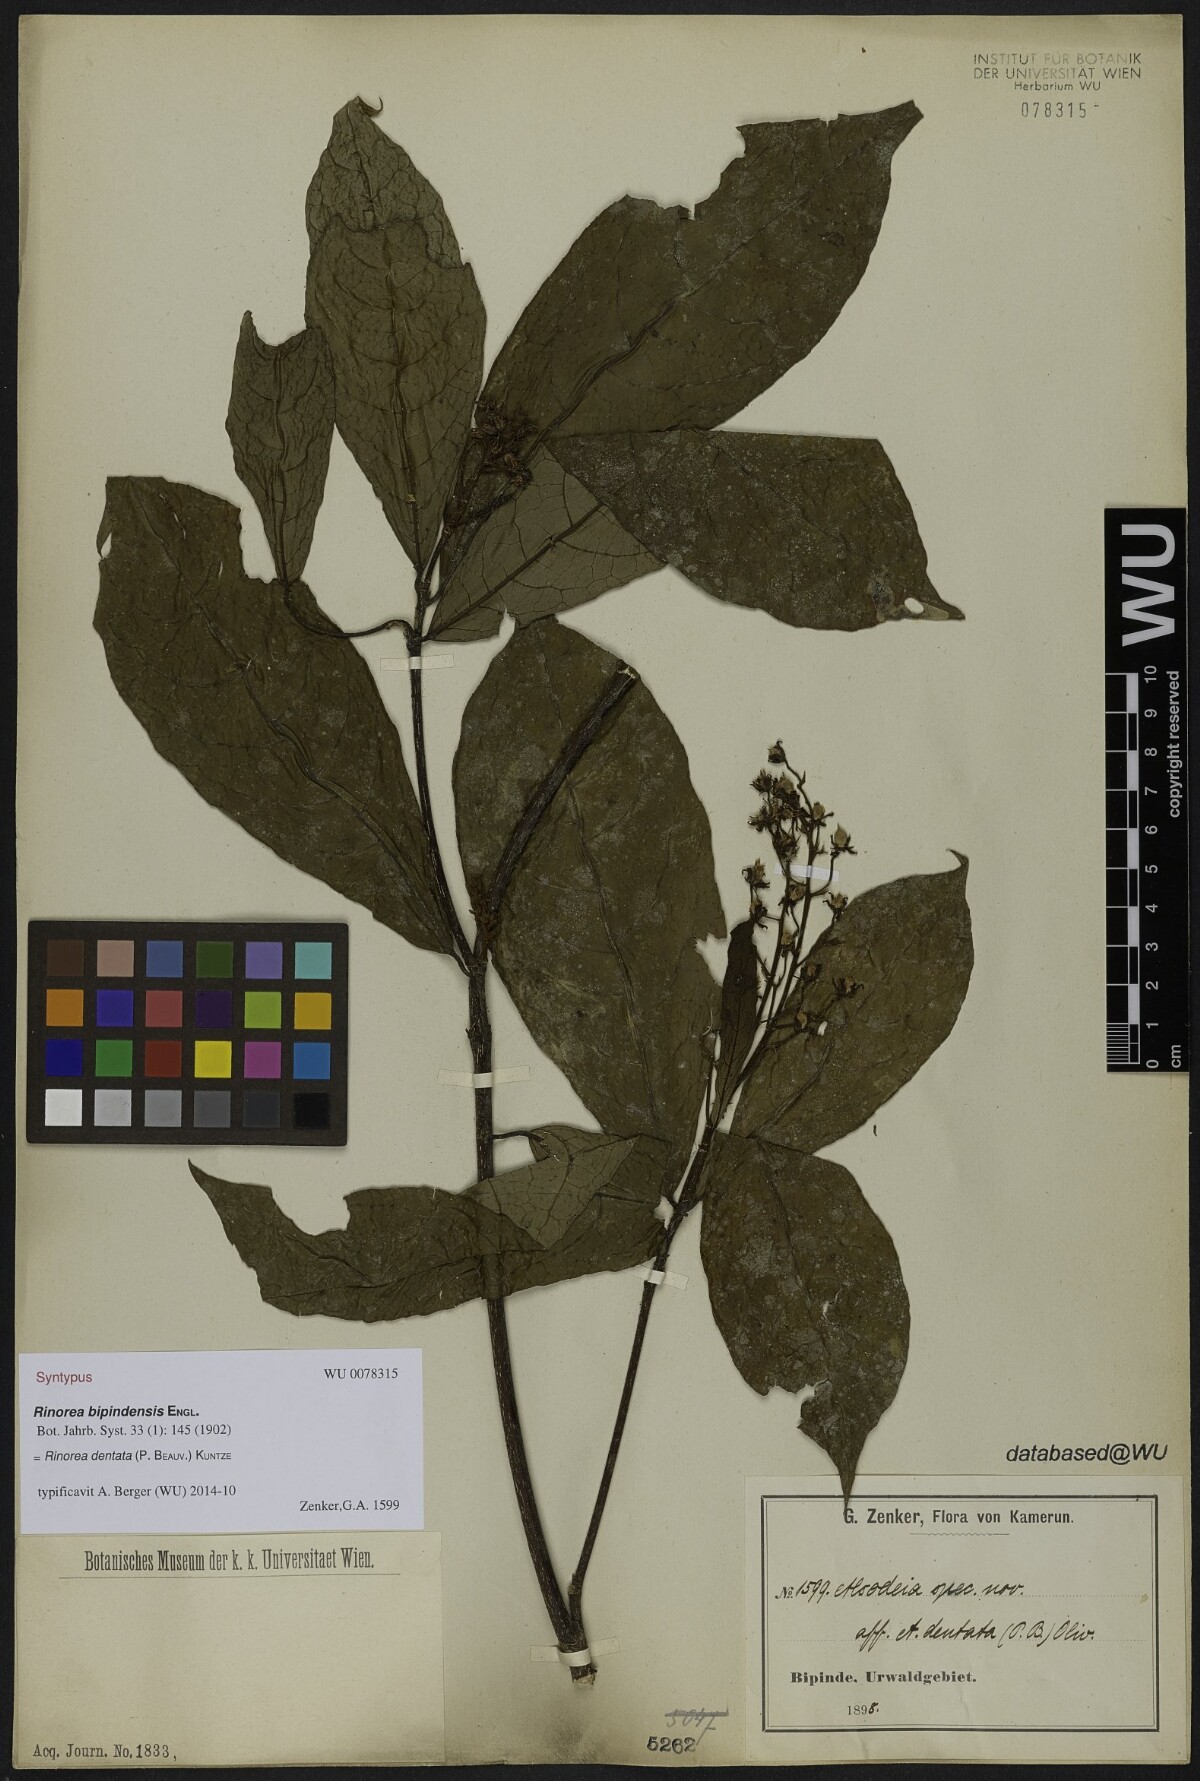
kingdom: Plantae
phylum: Tracheophyta
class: Magnoliopsida
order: Malpighiales
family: Violaceae
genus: Rinorea
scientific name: Rinorea dentata
